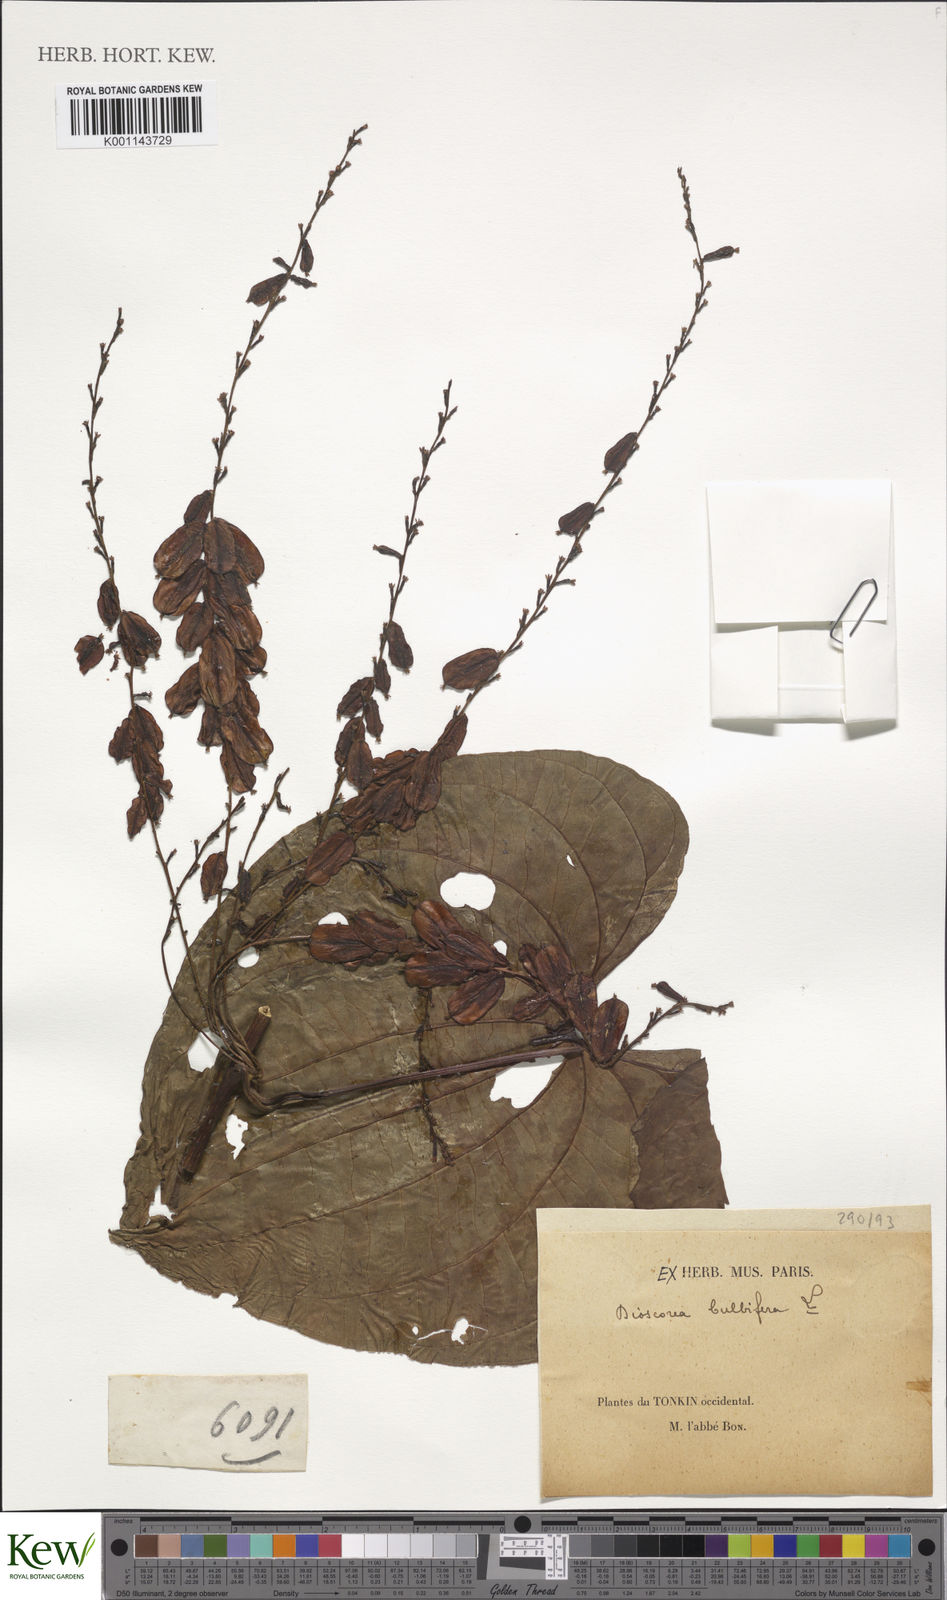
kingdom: Plantae
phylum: Tracheophyta
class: Liliopsida
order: Dioscoreales
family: Dioscoreaceae
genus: Dioscorea
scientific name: Dioscorea bulbifera
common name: Air yam
